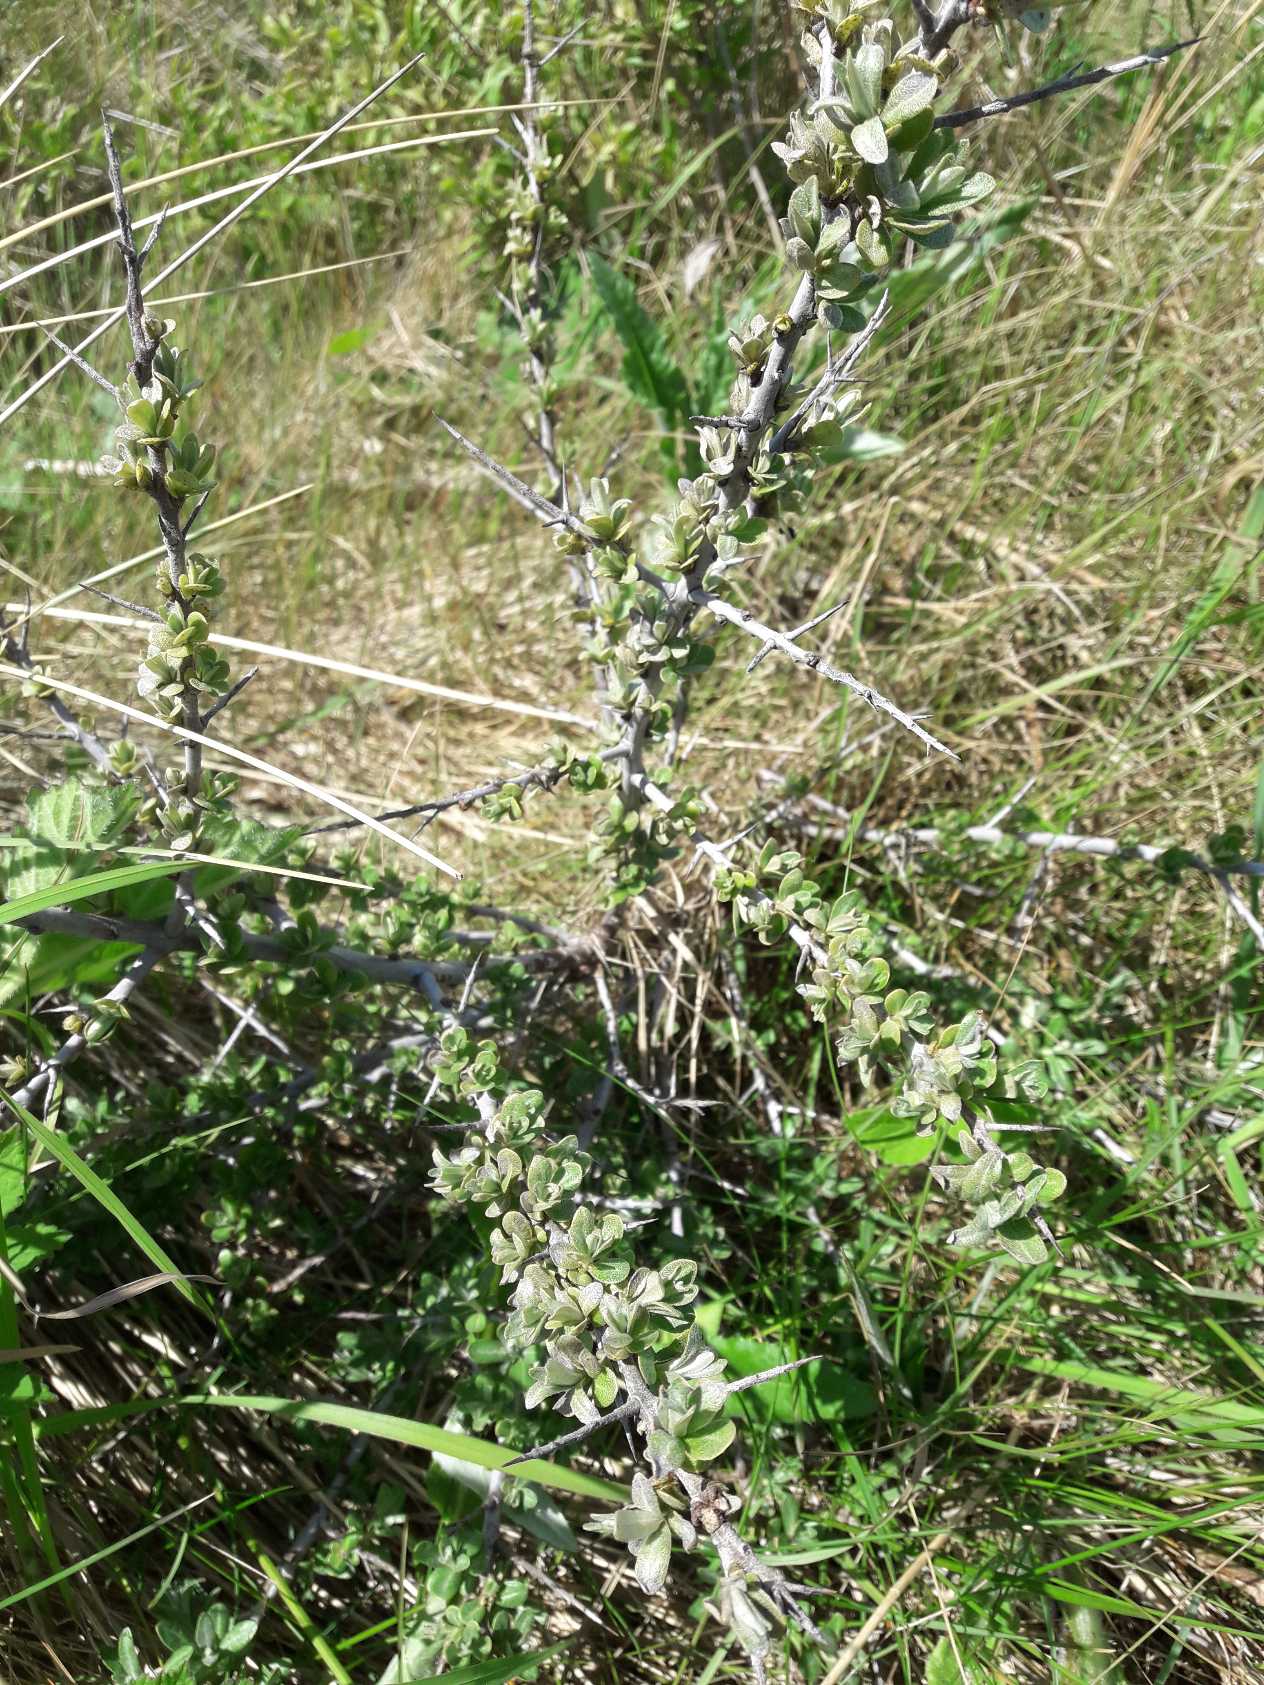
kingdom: Plantae
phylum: Tracheophyta
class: Magnoliopsida
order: Rosales
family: Elaeagnaceae
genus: Hippophae
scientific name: Hippophae rhamnoides
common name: Havtorn
